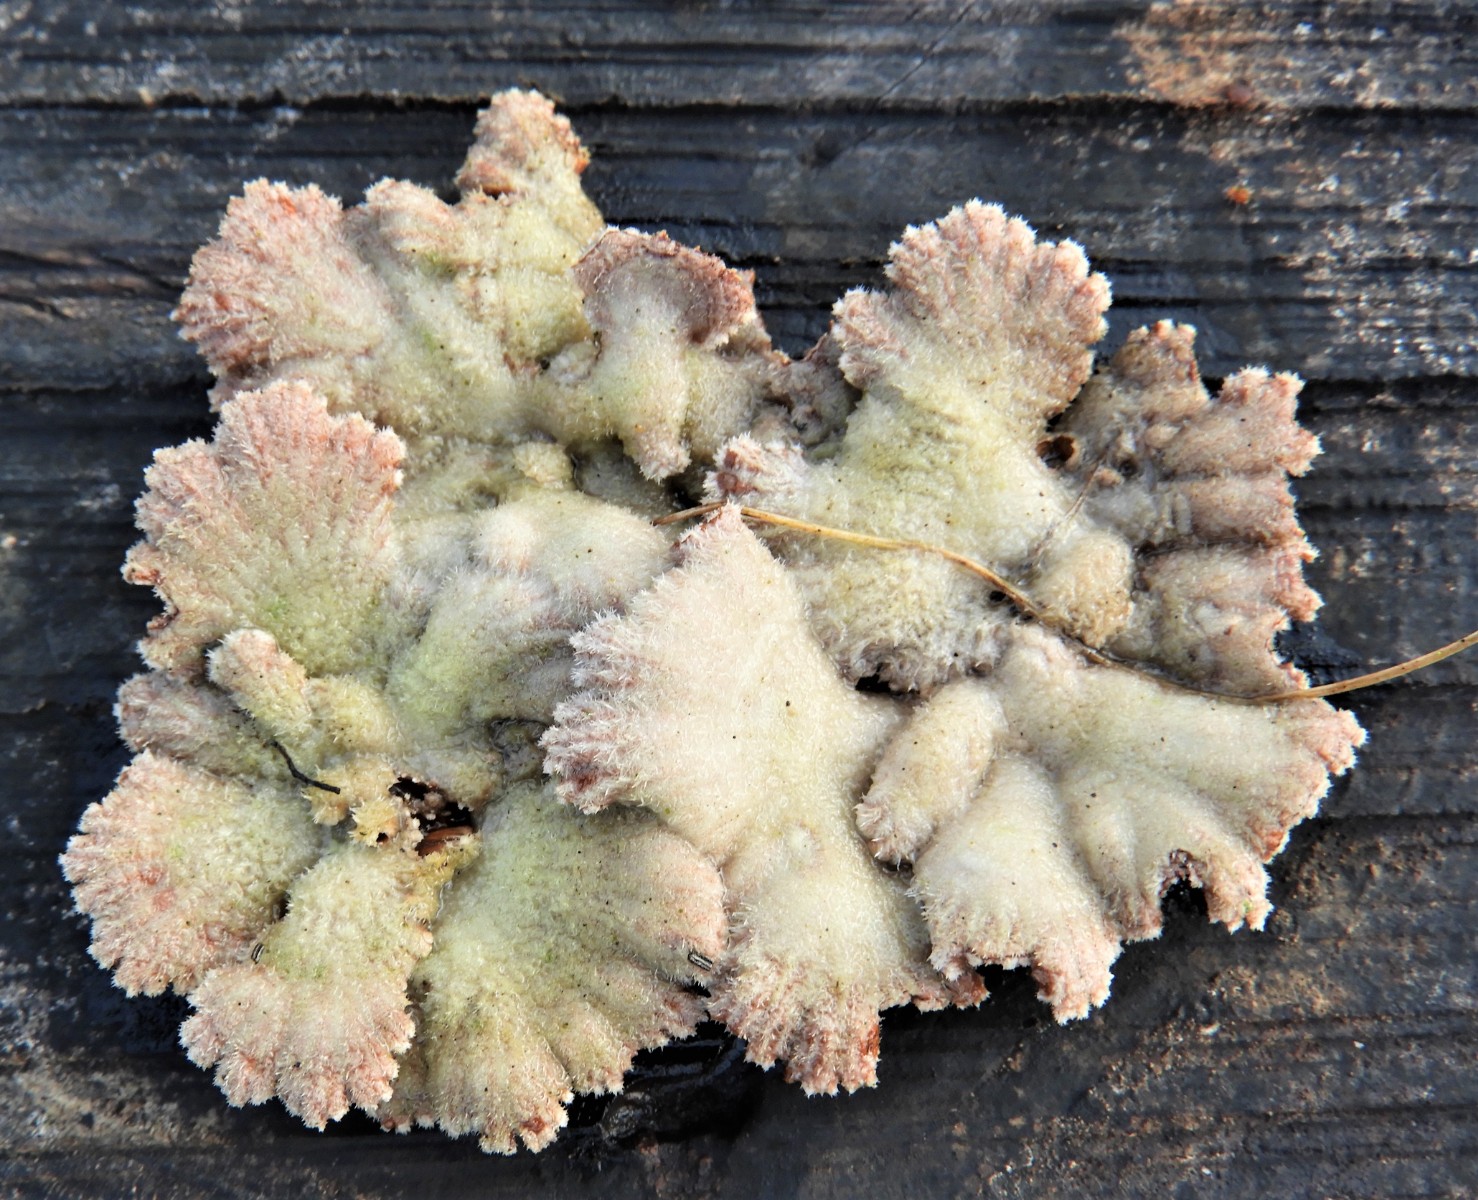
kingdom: Fungi
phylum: Basidiomycota
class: Agaricomycetes
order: Agaricales
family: Schizophyllaceae
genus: Schizophyllum
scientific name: Schizophyllum commune
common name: kløvblad
